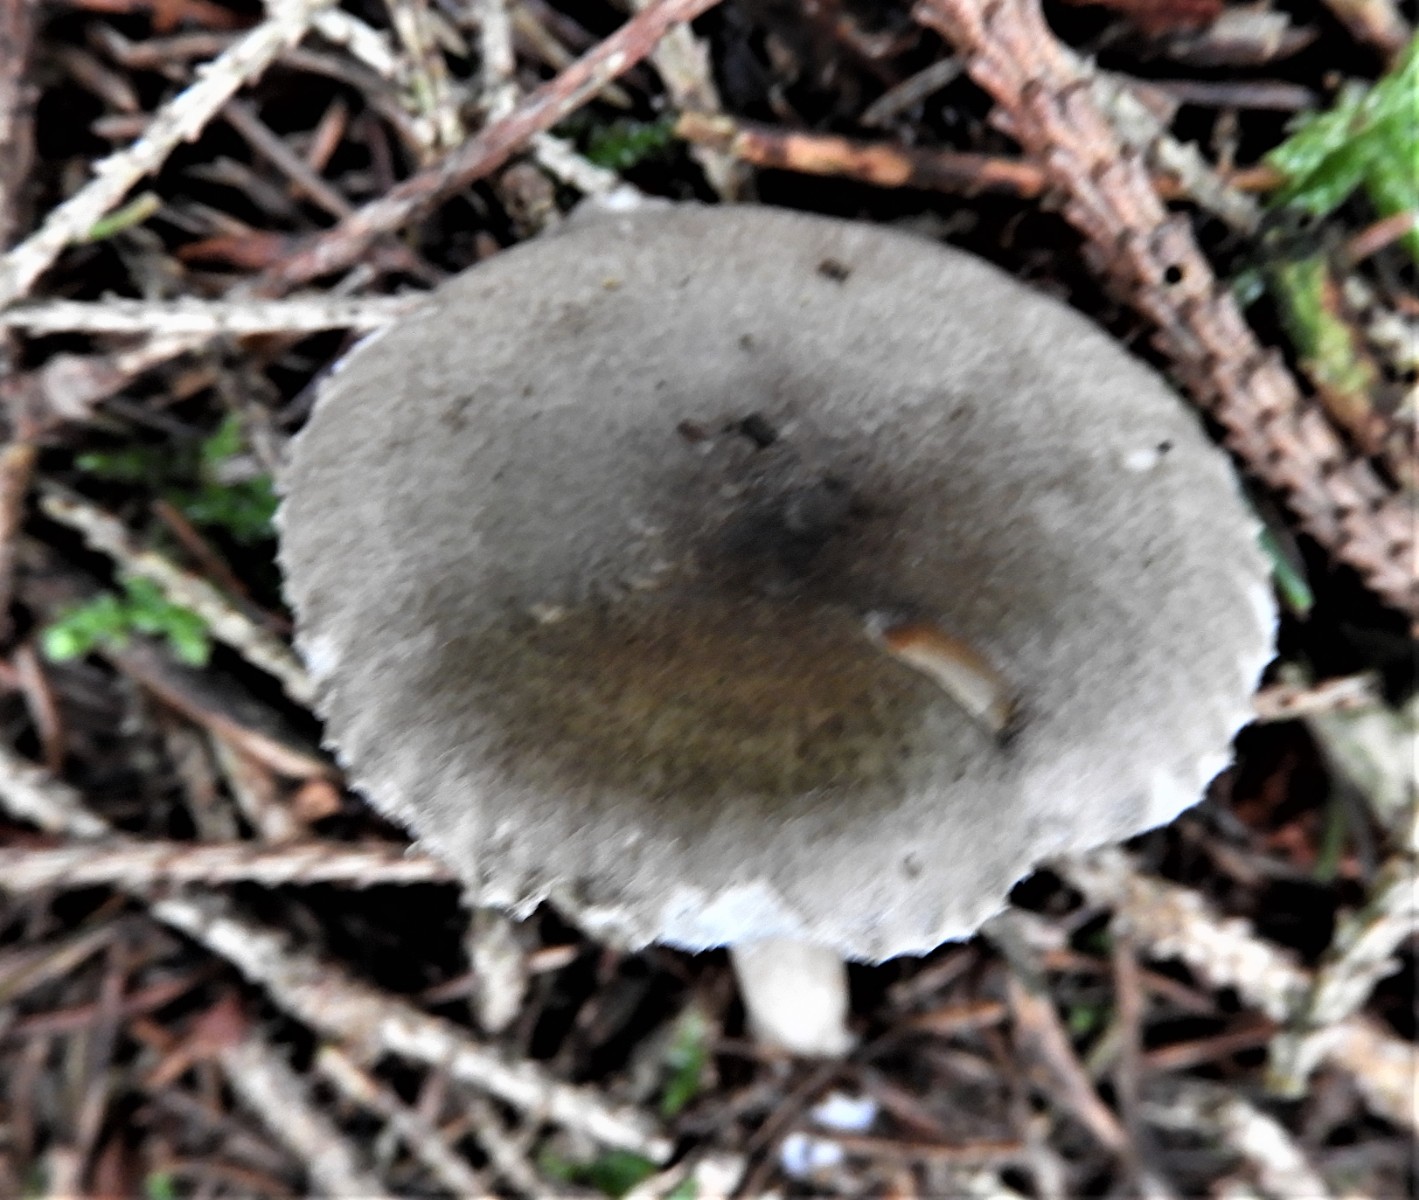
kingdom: Fungi
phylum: Basidiomycota
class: Agaricomycetes
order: Agaricales
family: Hygrophoraceae
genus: Hygrophorus
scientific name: Hygrophorus pustulatus
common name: mørkprikket sneglehat
